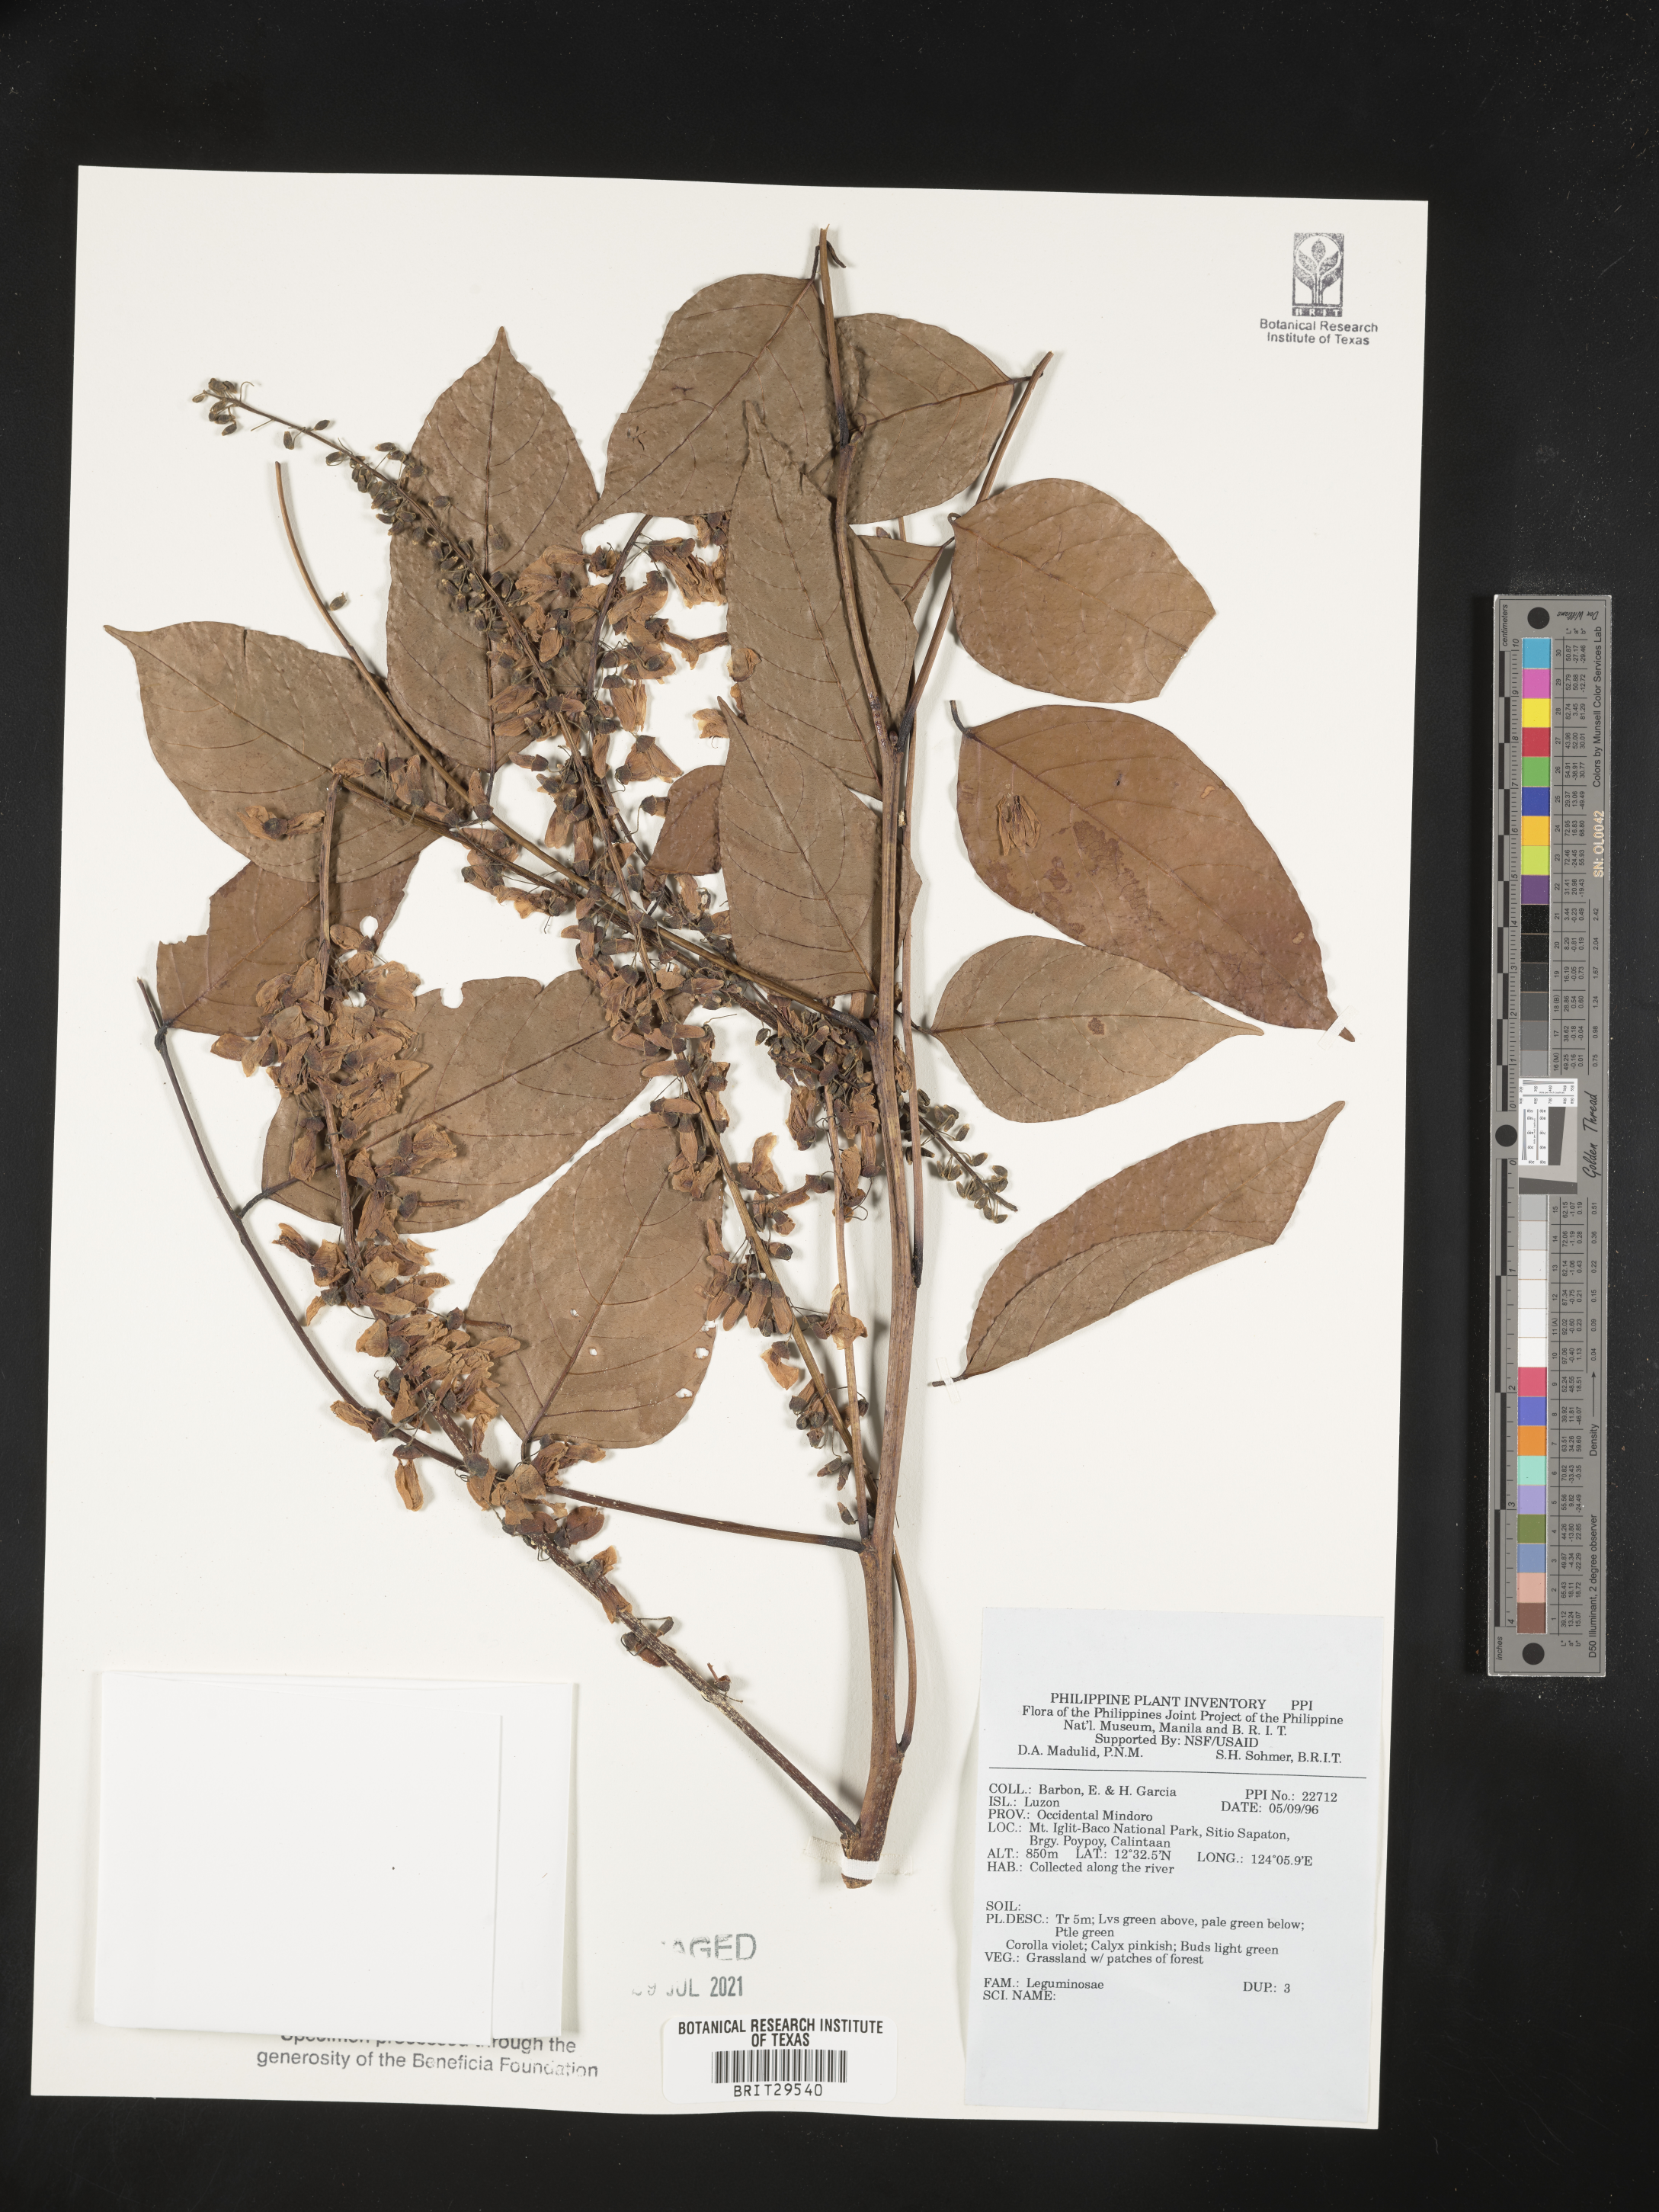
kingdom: Plantae
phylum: Tracheophyta
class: Magnoliopsida
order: Fabales
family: Fabaceae
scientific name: Fabaceae
